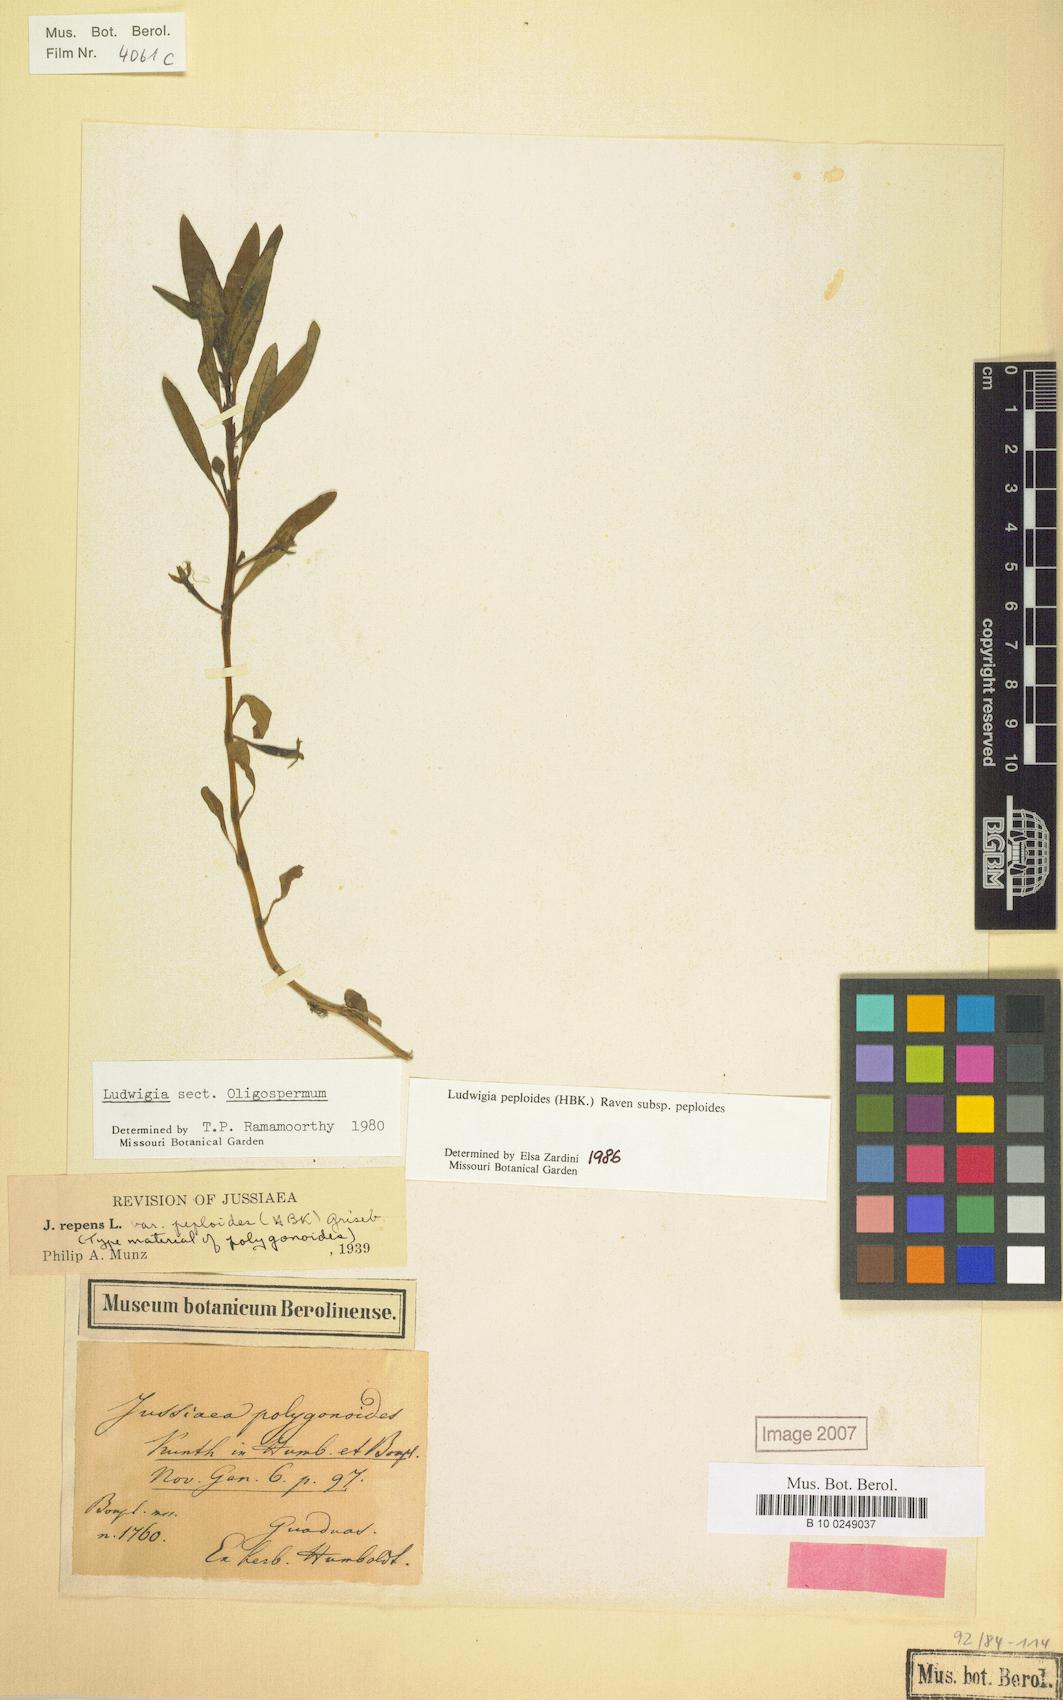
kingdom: Plantae
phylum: Tracheophyta
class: Magnoliopsida
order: Myrtales
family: Onagraceae
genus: Ludwigia
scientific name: Ludwigia peploides
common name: Floating primrose-willow
